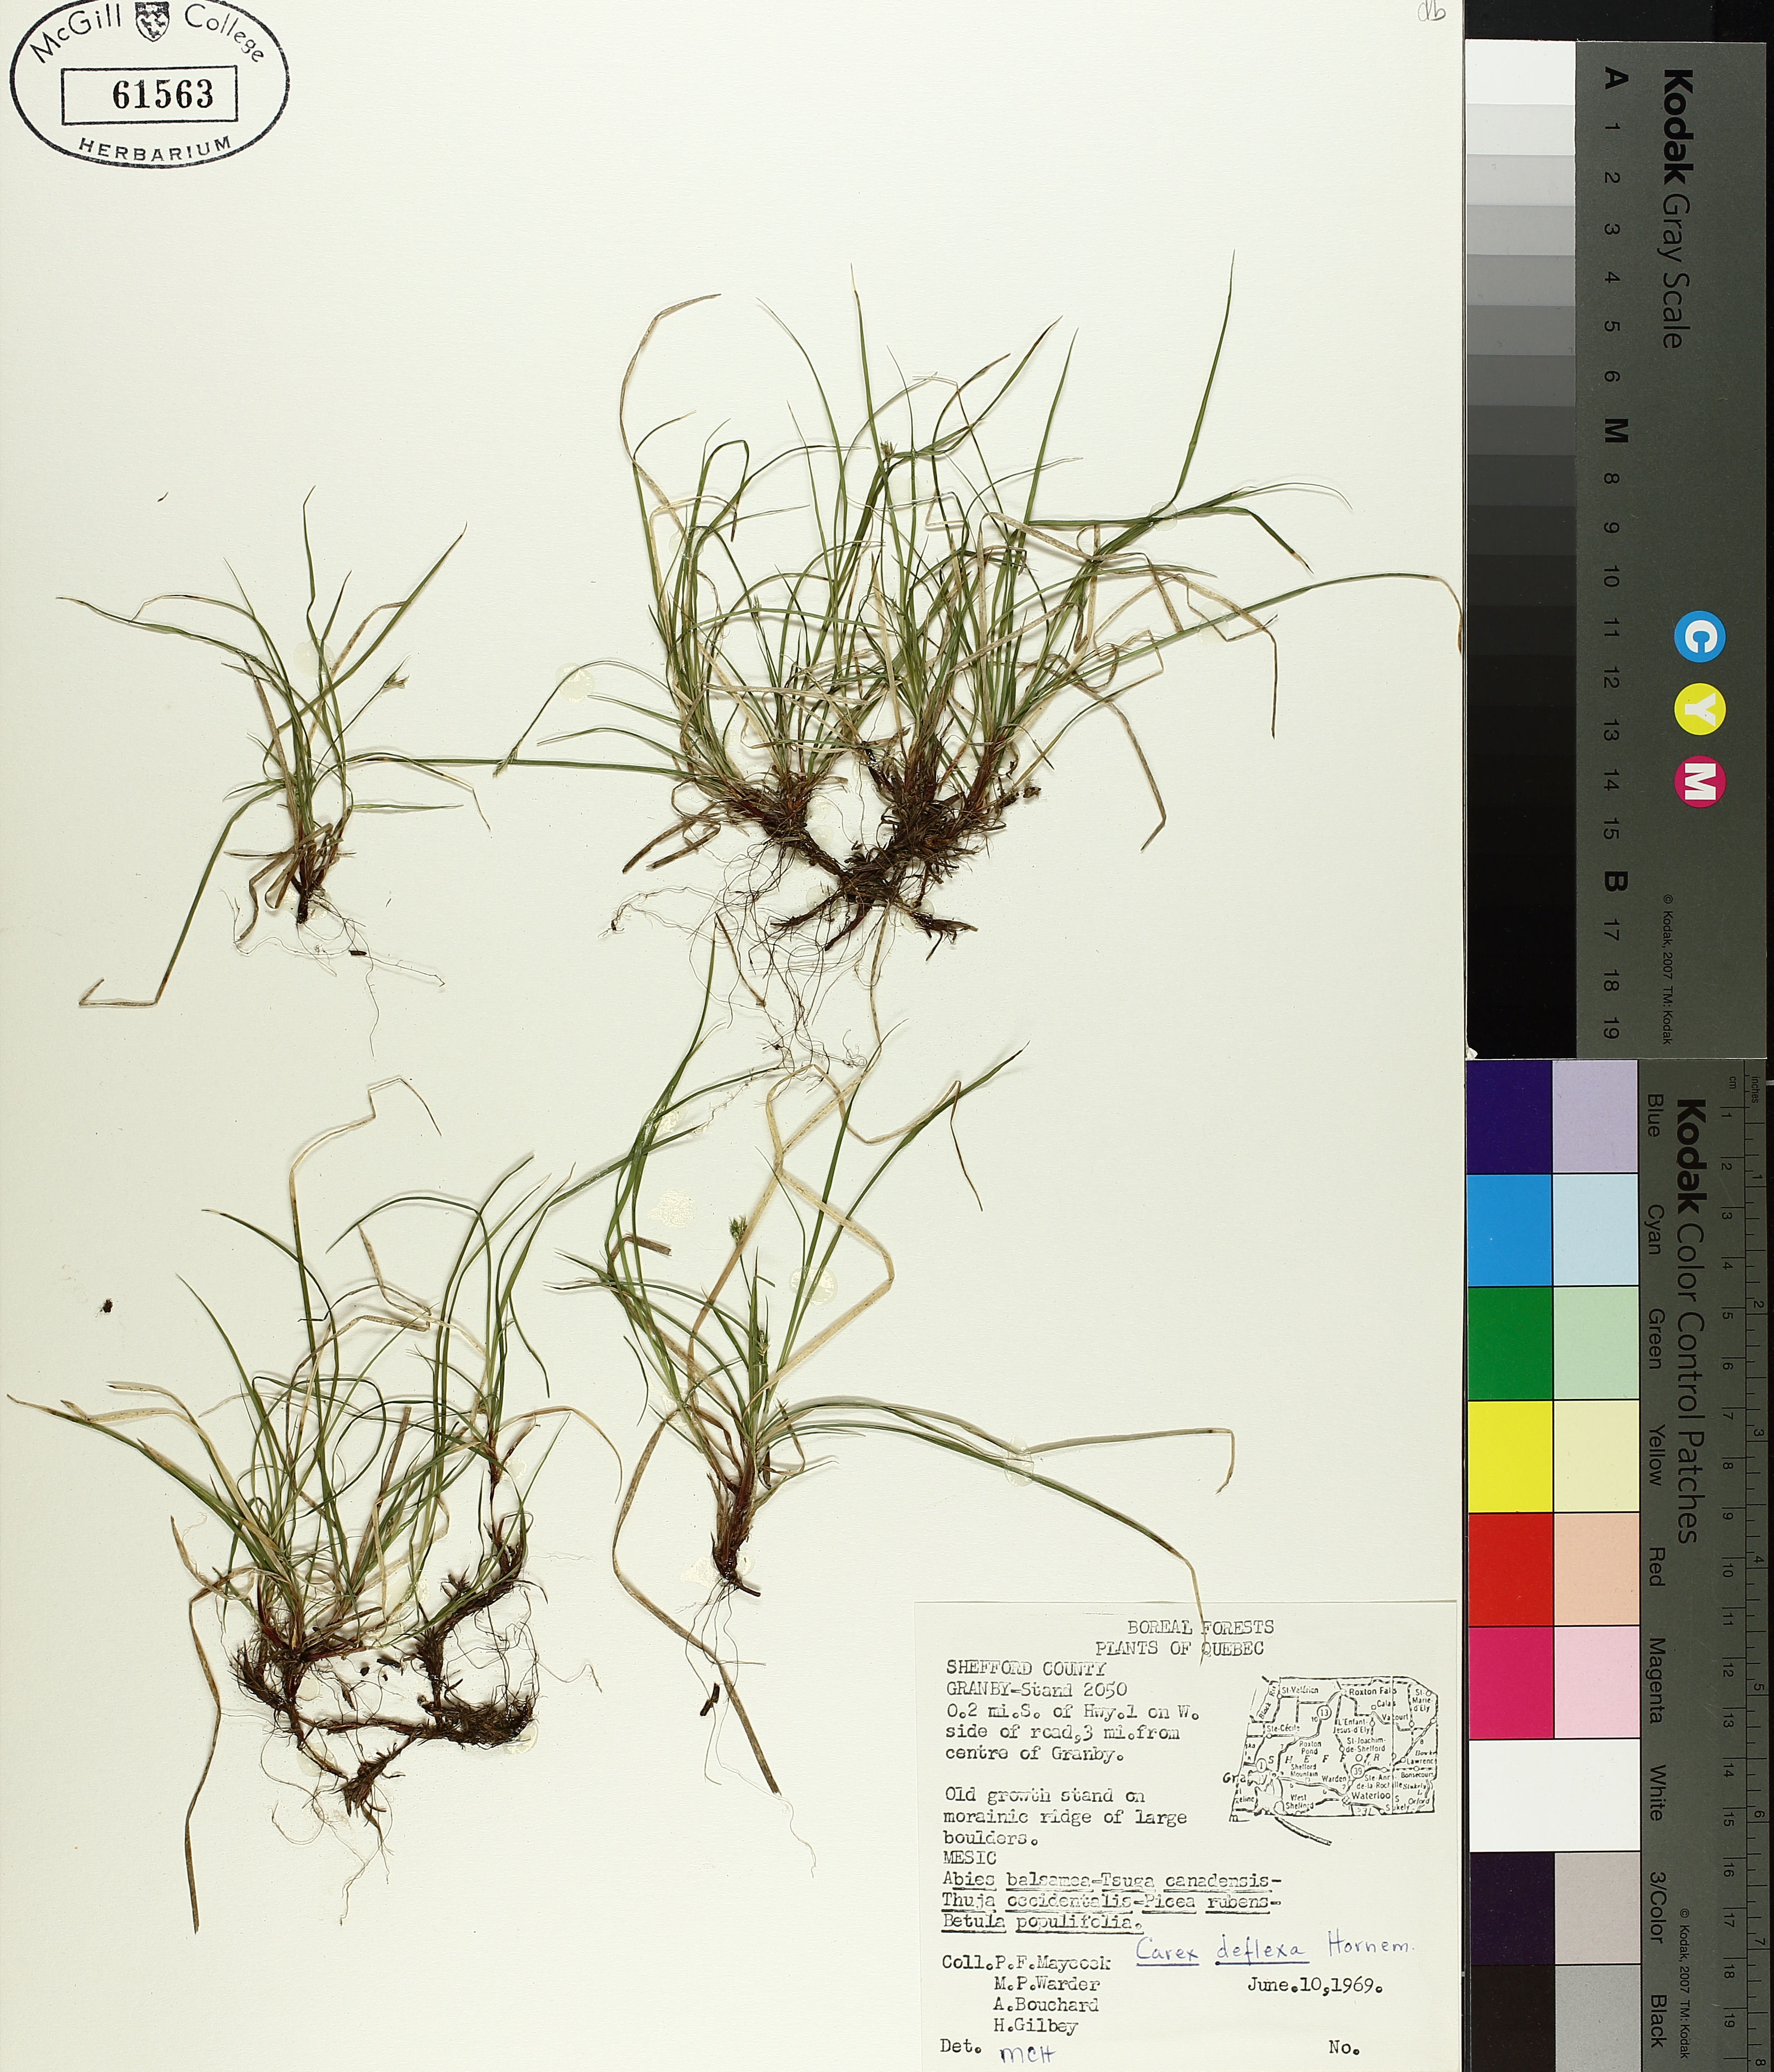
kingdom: Plantae
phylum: Tracheophyta
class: Liliopsida
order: Poales
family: Cyperaceae
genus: Carex
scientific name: Carex deflexa
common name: Bent northern sedge
